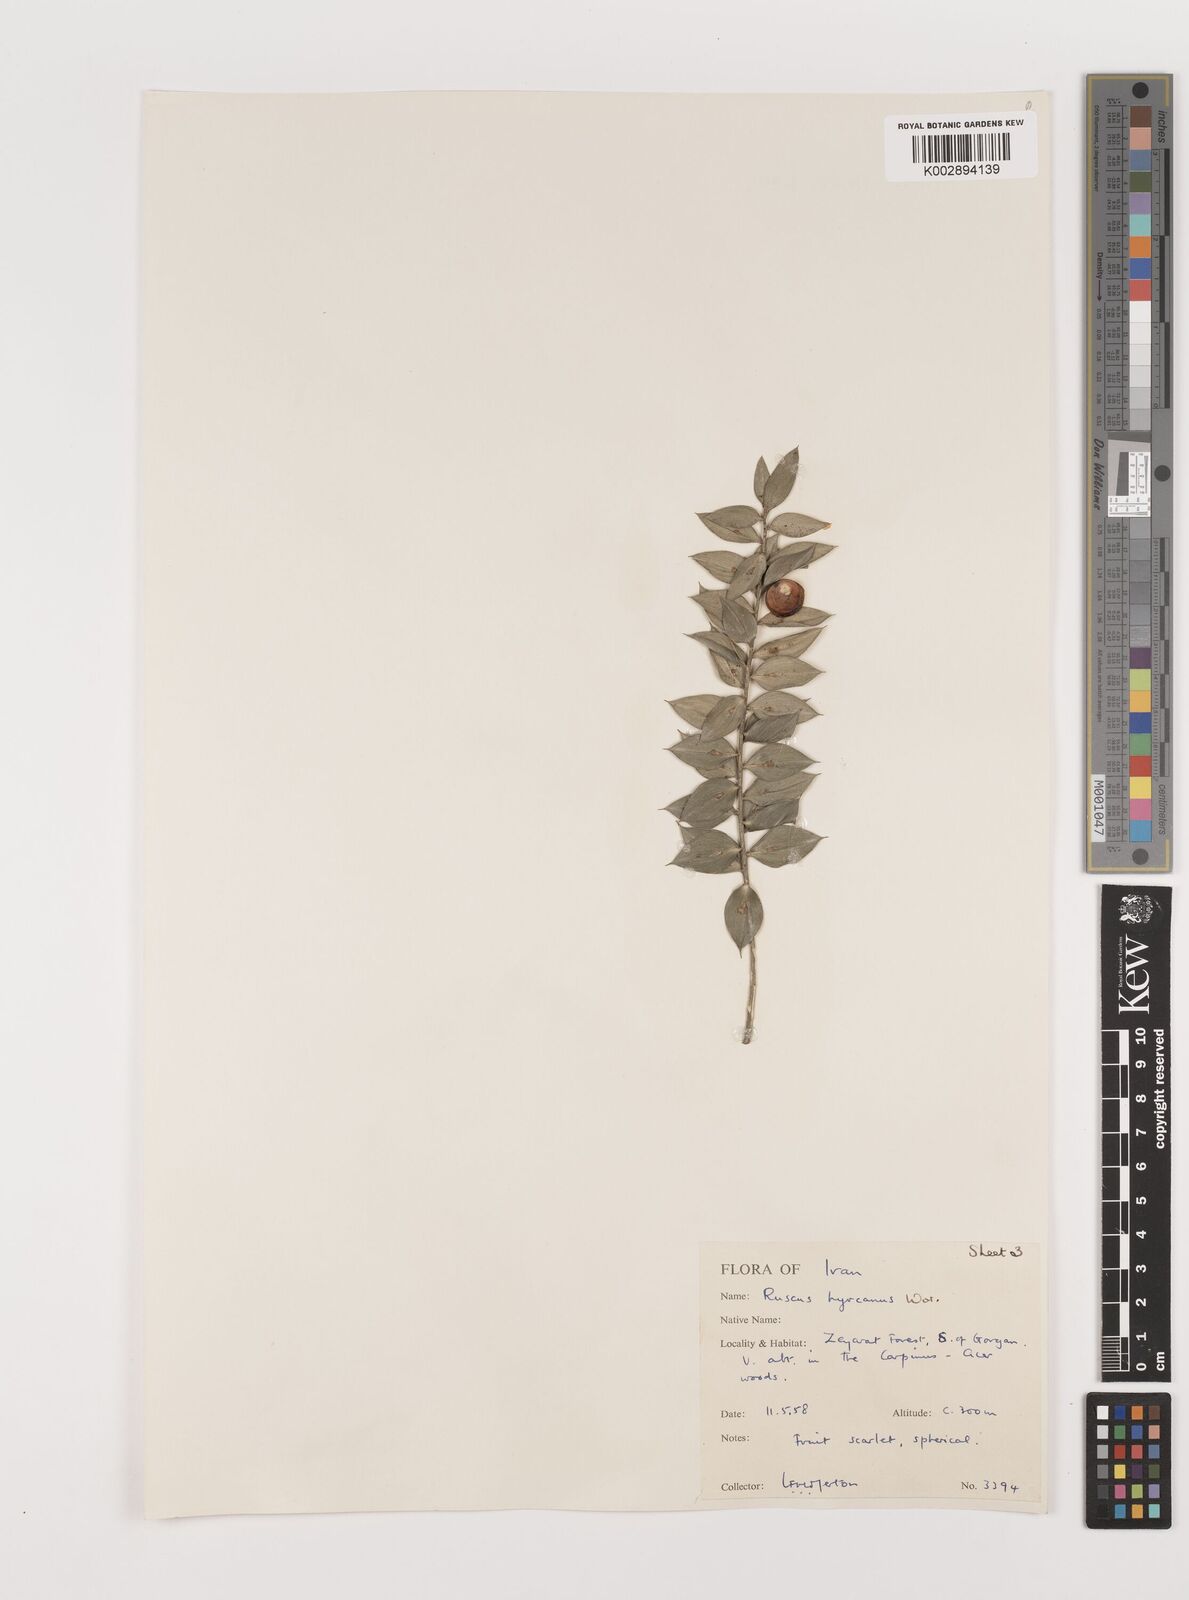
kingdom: Plantae
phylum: Tracheophyta
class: Liliopsida
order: Asparagales
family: Asparagaceae
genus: Ruscus
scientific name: Ruscus hyrcanus
